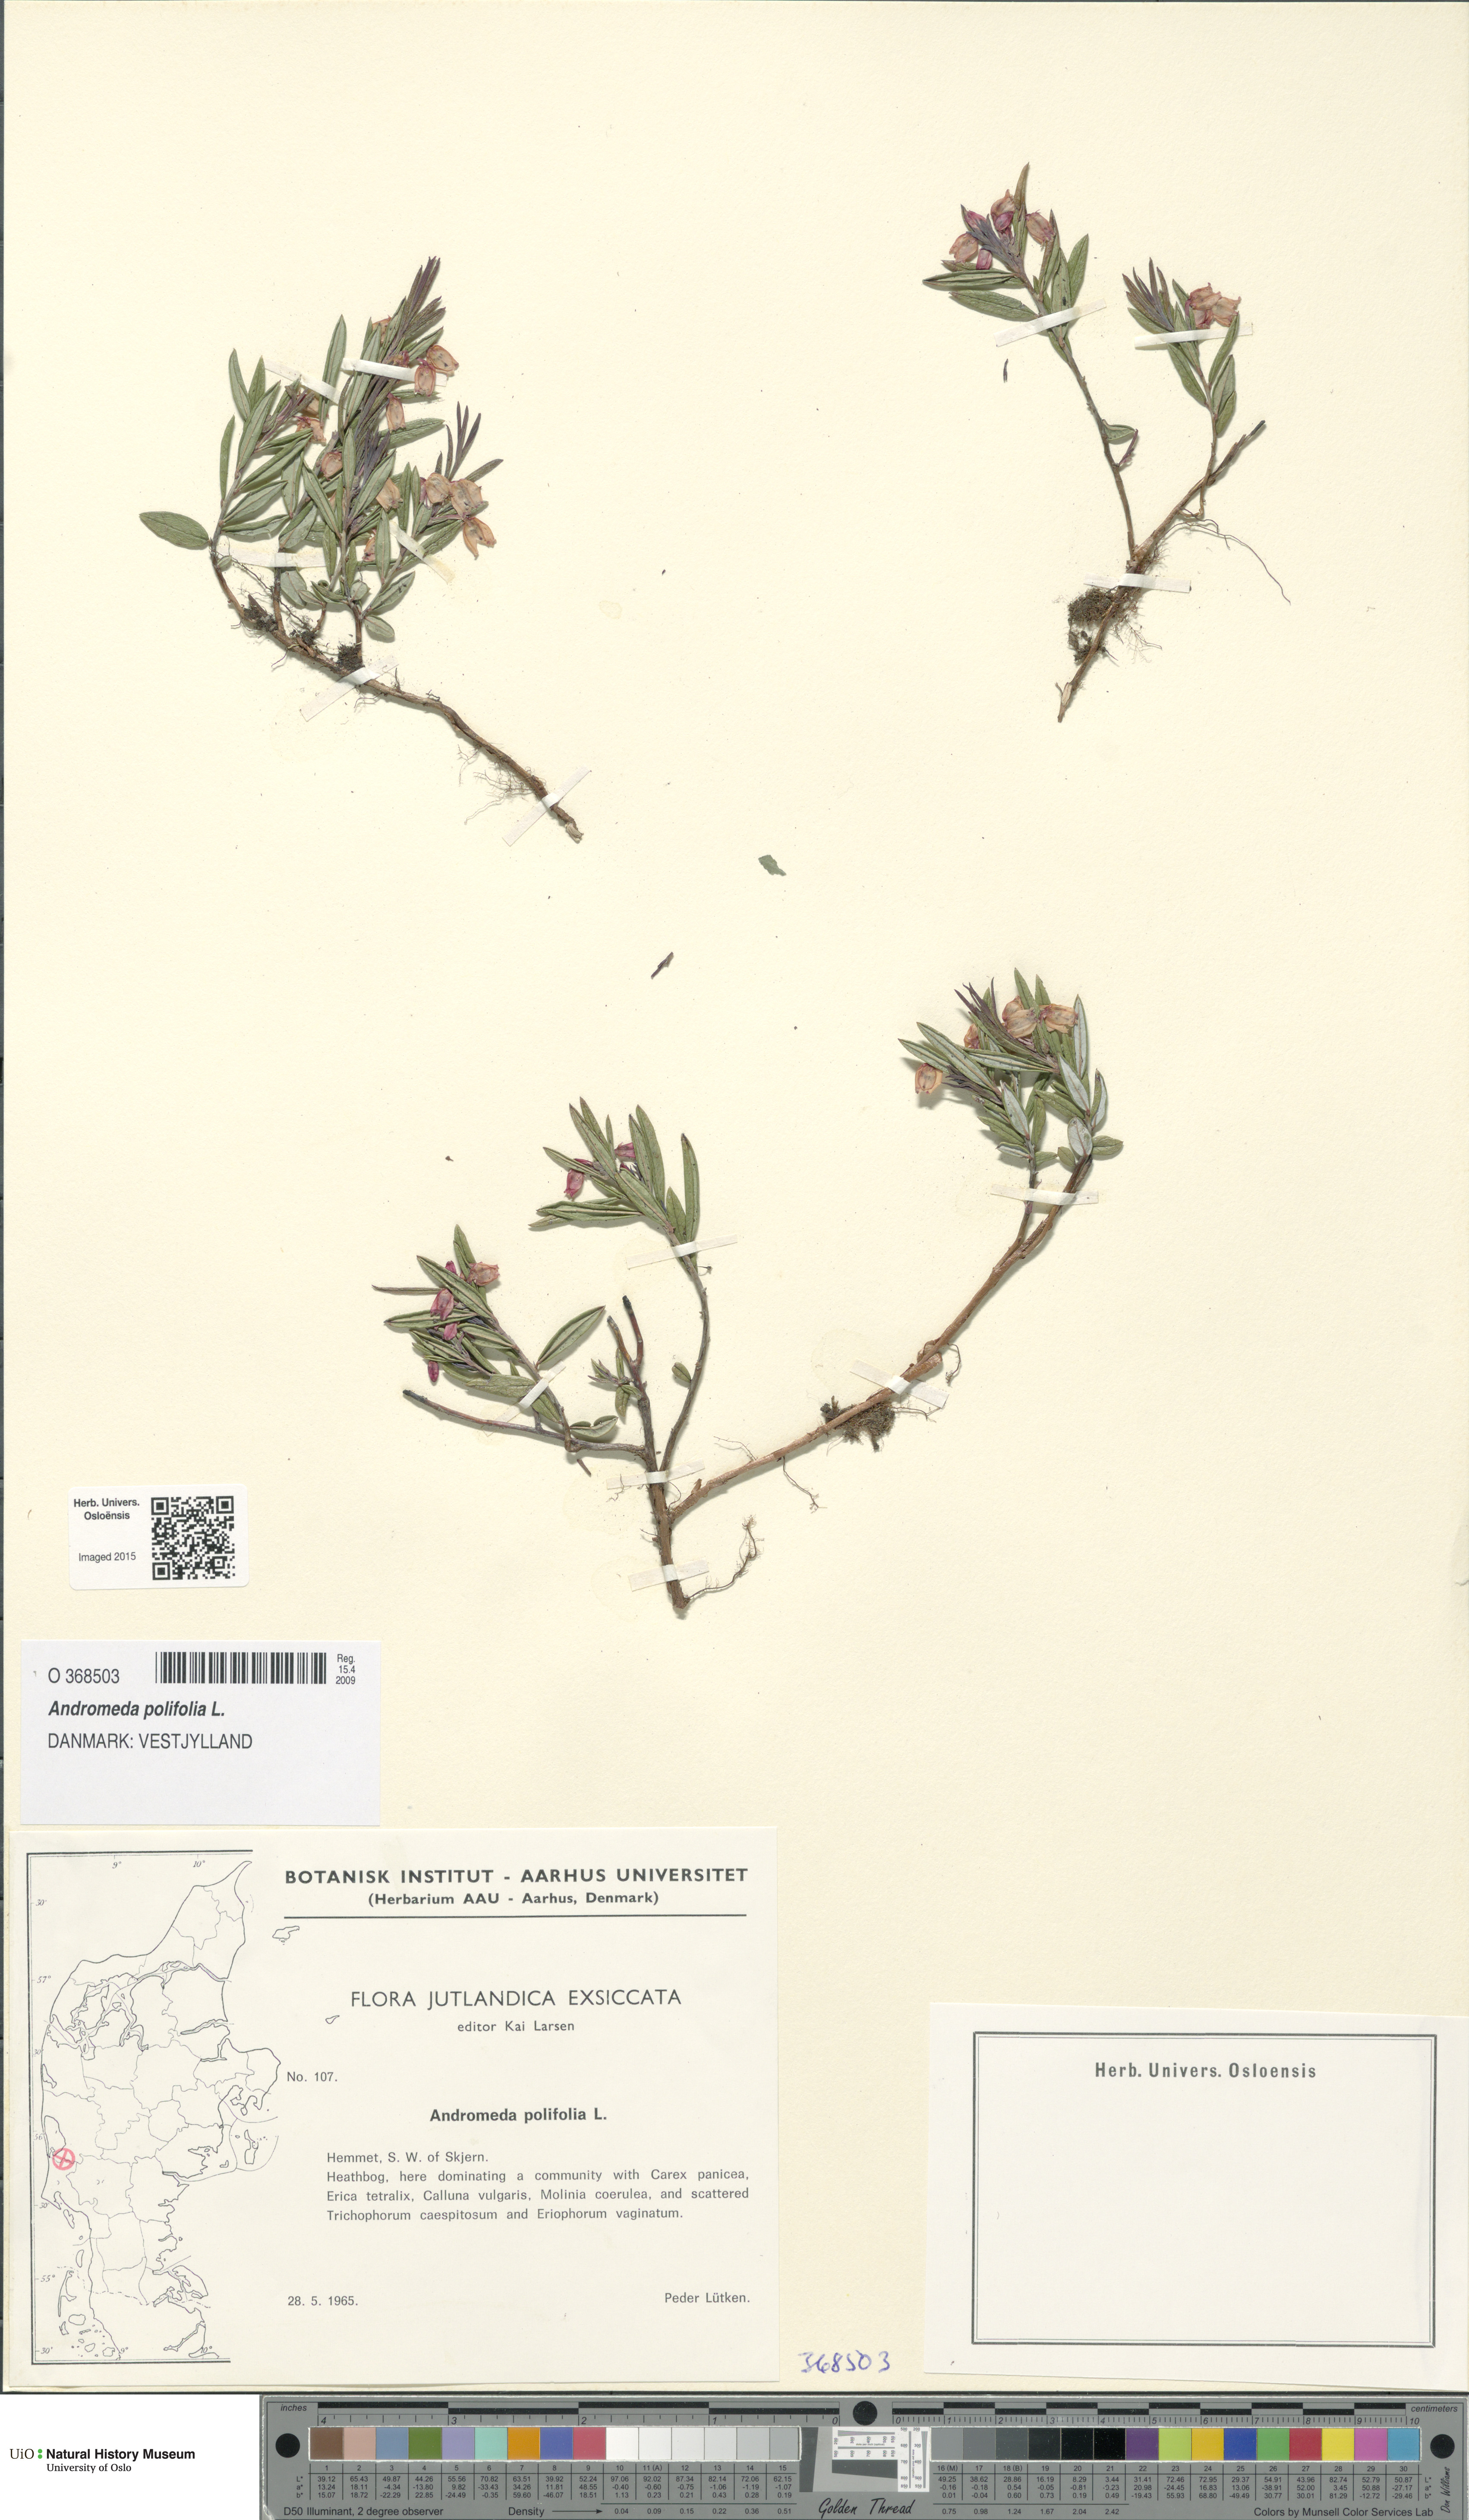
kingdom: Plantae
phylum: Tracheophyta
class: Magnoliopsida
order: Ericales
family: Ericaceae
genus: Andromeda
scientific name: Andromeda polifolia
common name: Bog-rosemary
